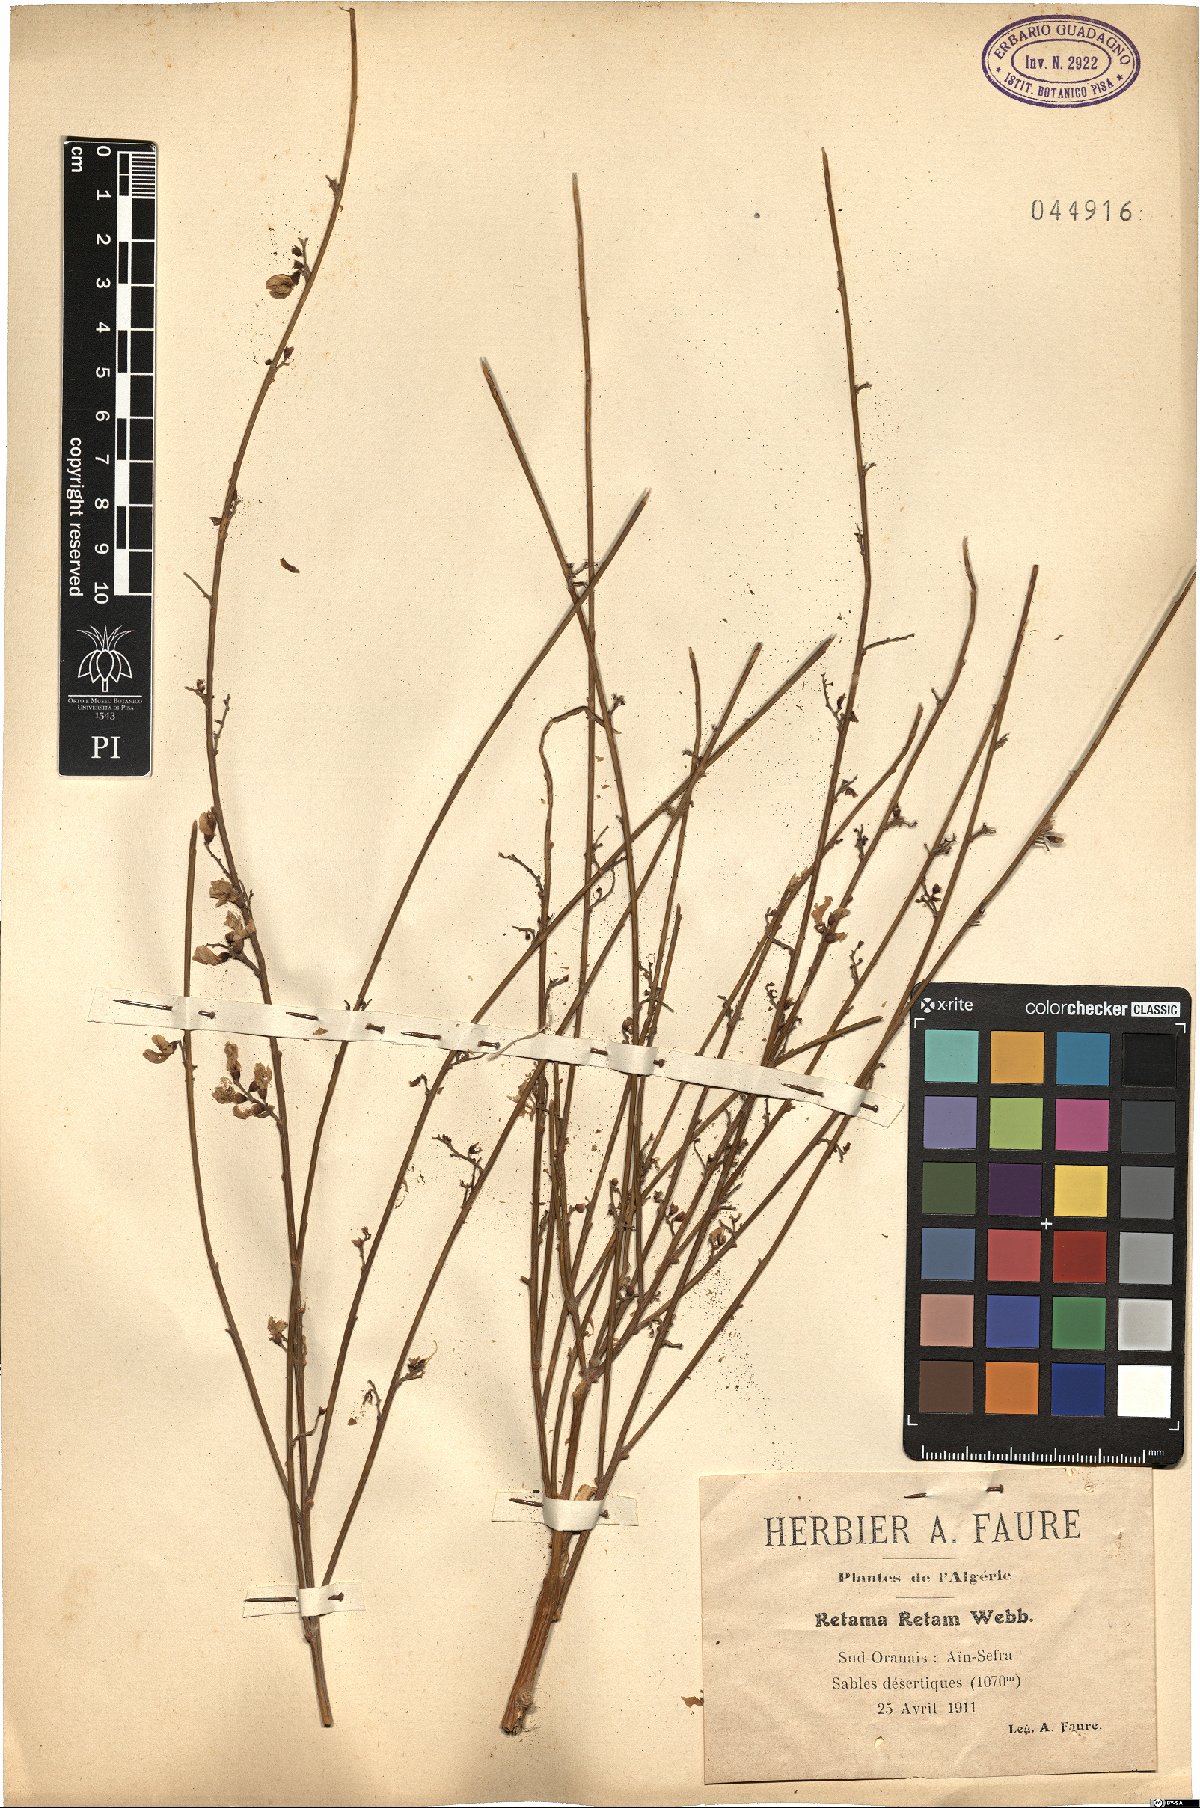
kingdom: Plantae
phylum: Tracheophyta
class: Magnoliopsida
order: Fabales
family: Fabaceae
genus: Retama
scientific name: Retama raetam
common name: Retem
